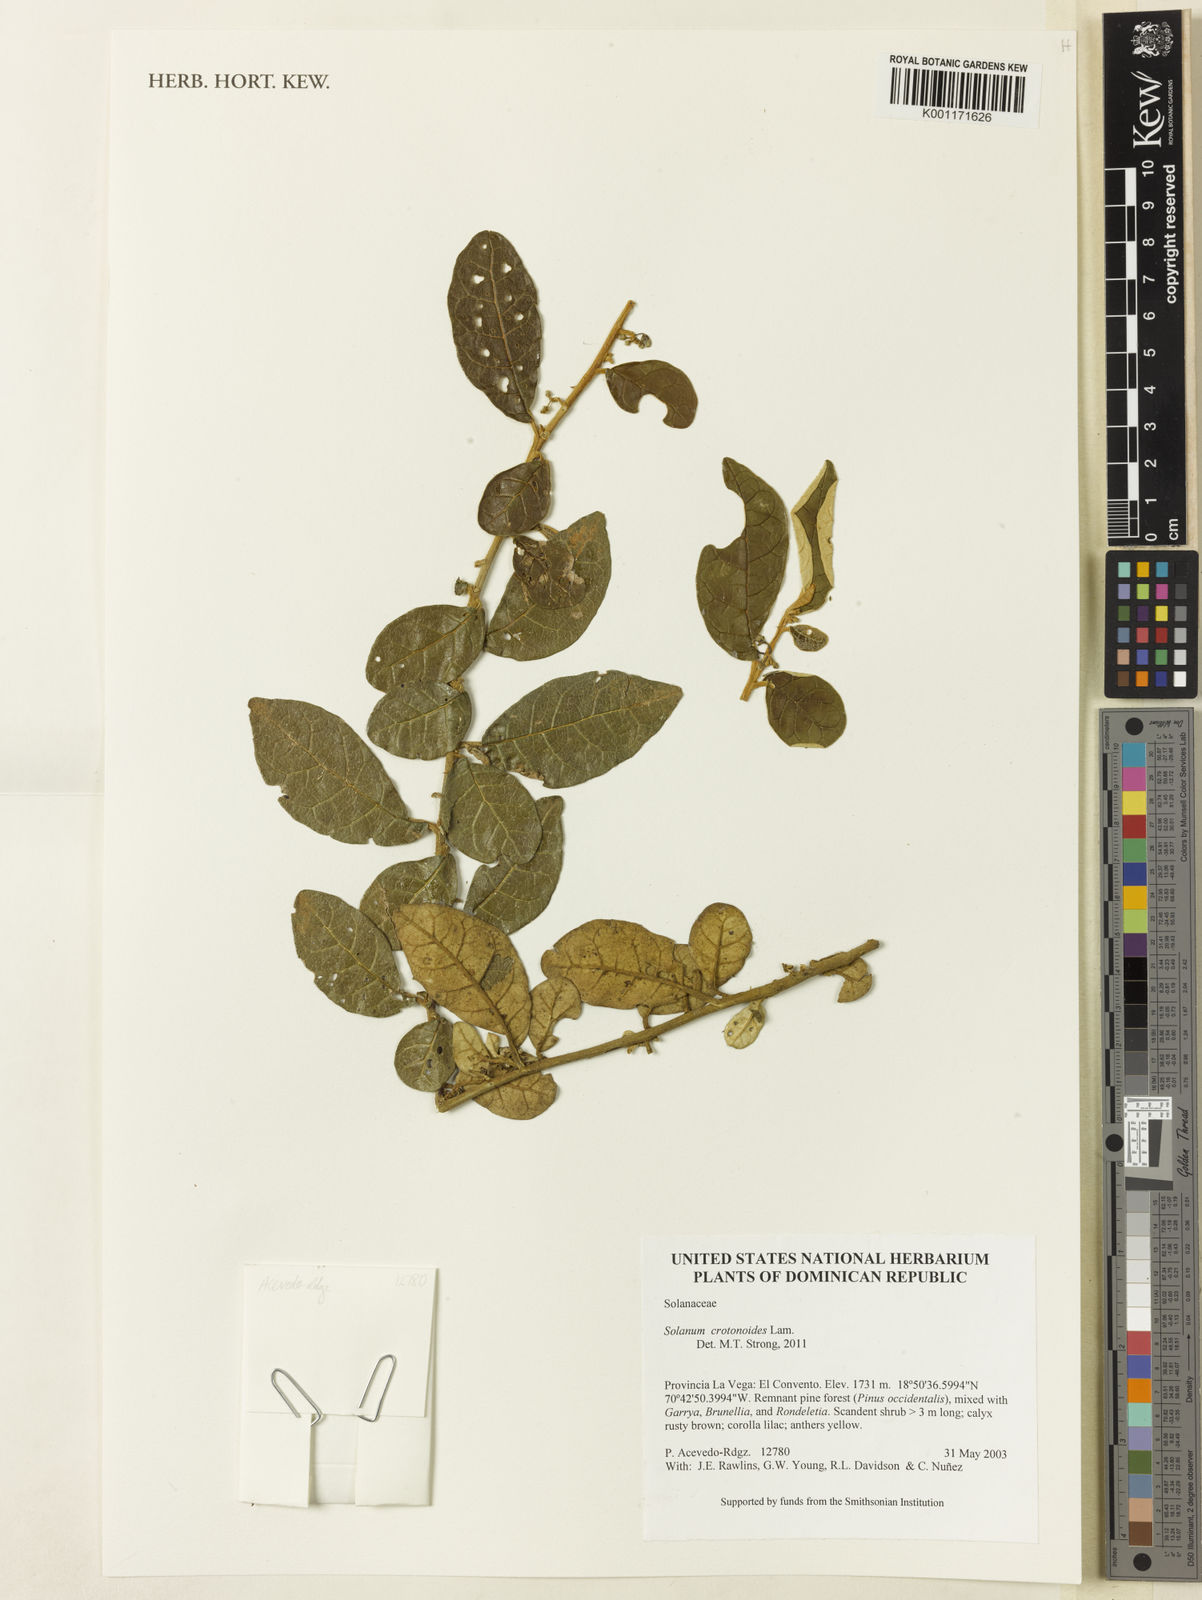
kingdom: Plantae
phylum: Tracheophyta
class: Magnoliopsida
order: Solanales
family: Solanaceae
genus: Solanum
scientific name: Solanum crotonoides
